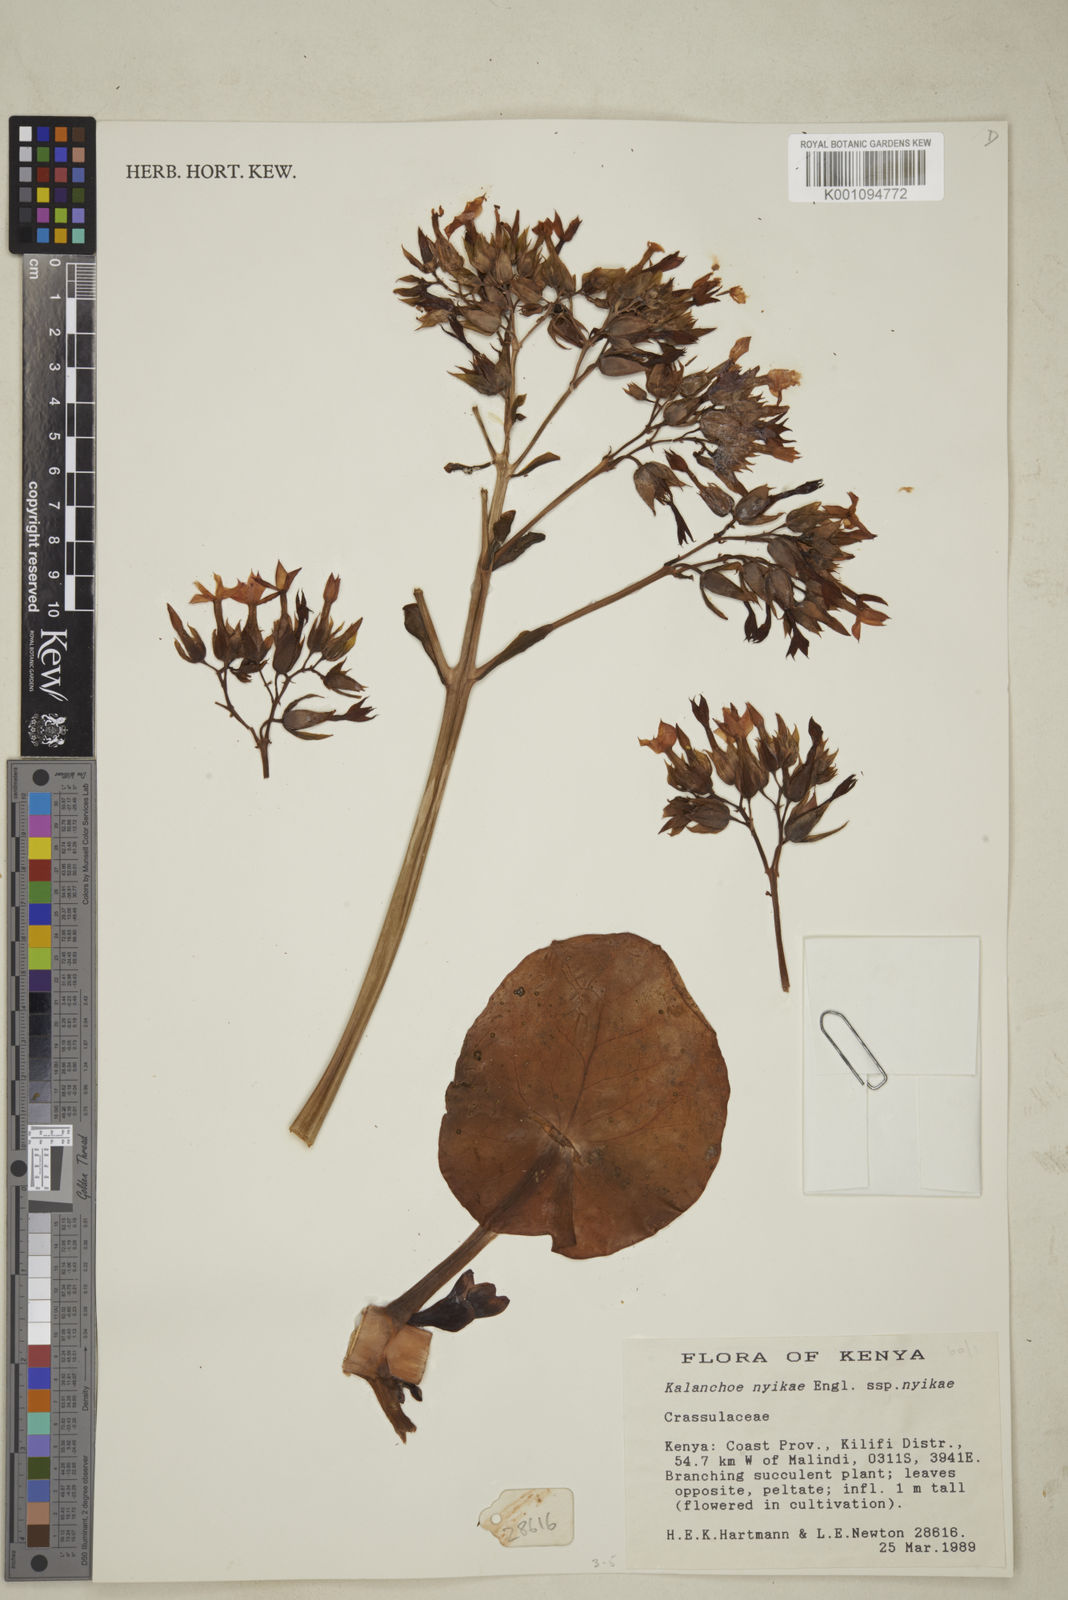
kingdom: Plantae
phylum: Tracheophyta
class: Magnoliopsida
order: Saxifragales
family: Crassulaceae
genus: Kalanchoe
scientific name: Kalanchoe nyikae
